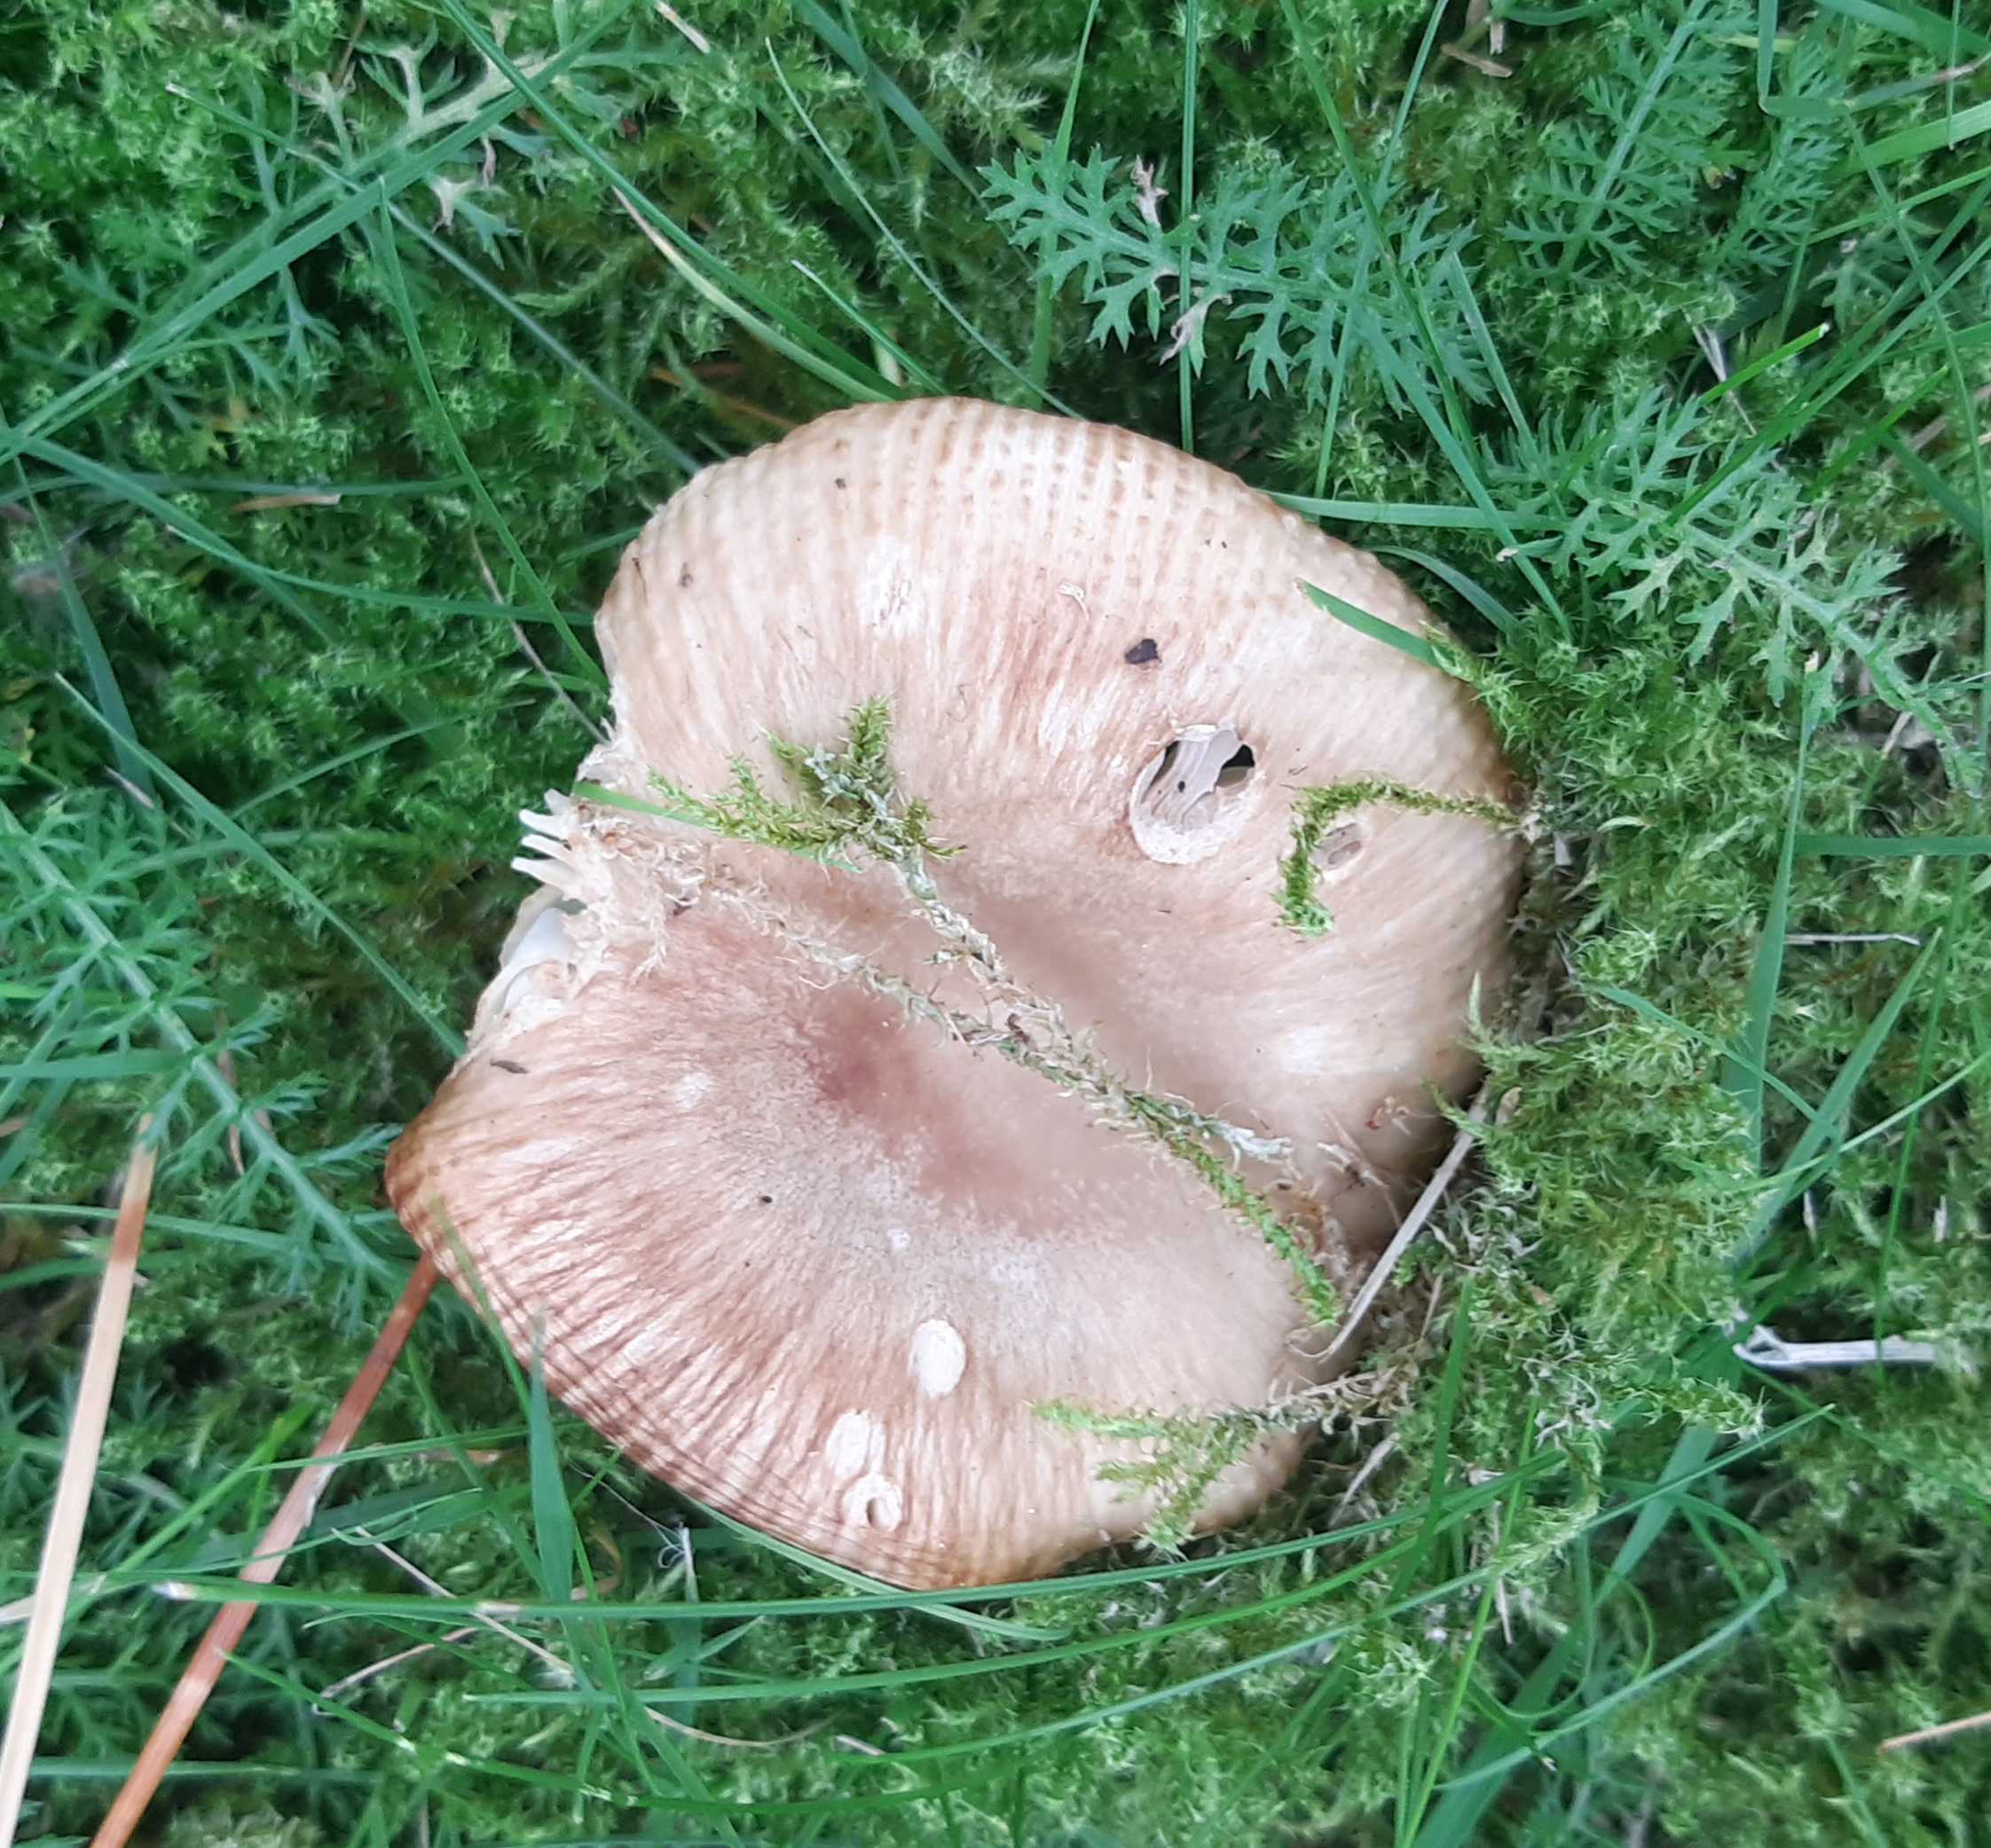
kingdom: Fungi
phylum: Basidiomycota
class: Agaricomycetes
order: Russulales
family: Russulaceae
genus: Russula
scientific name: Russula
